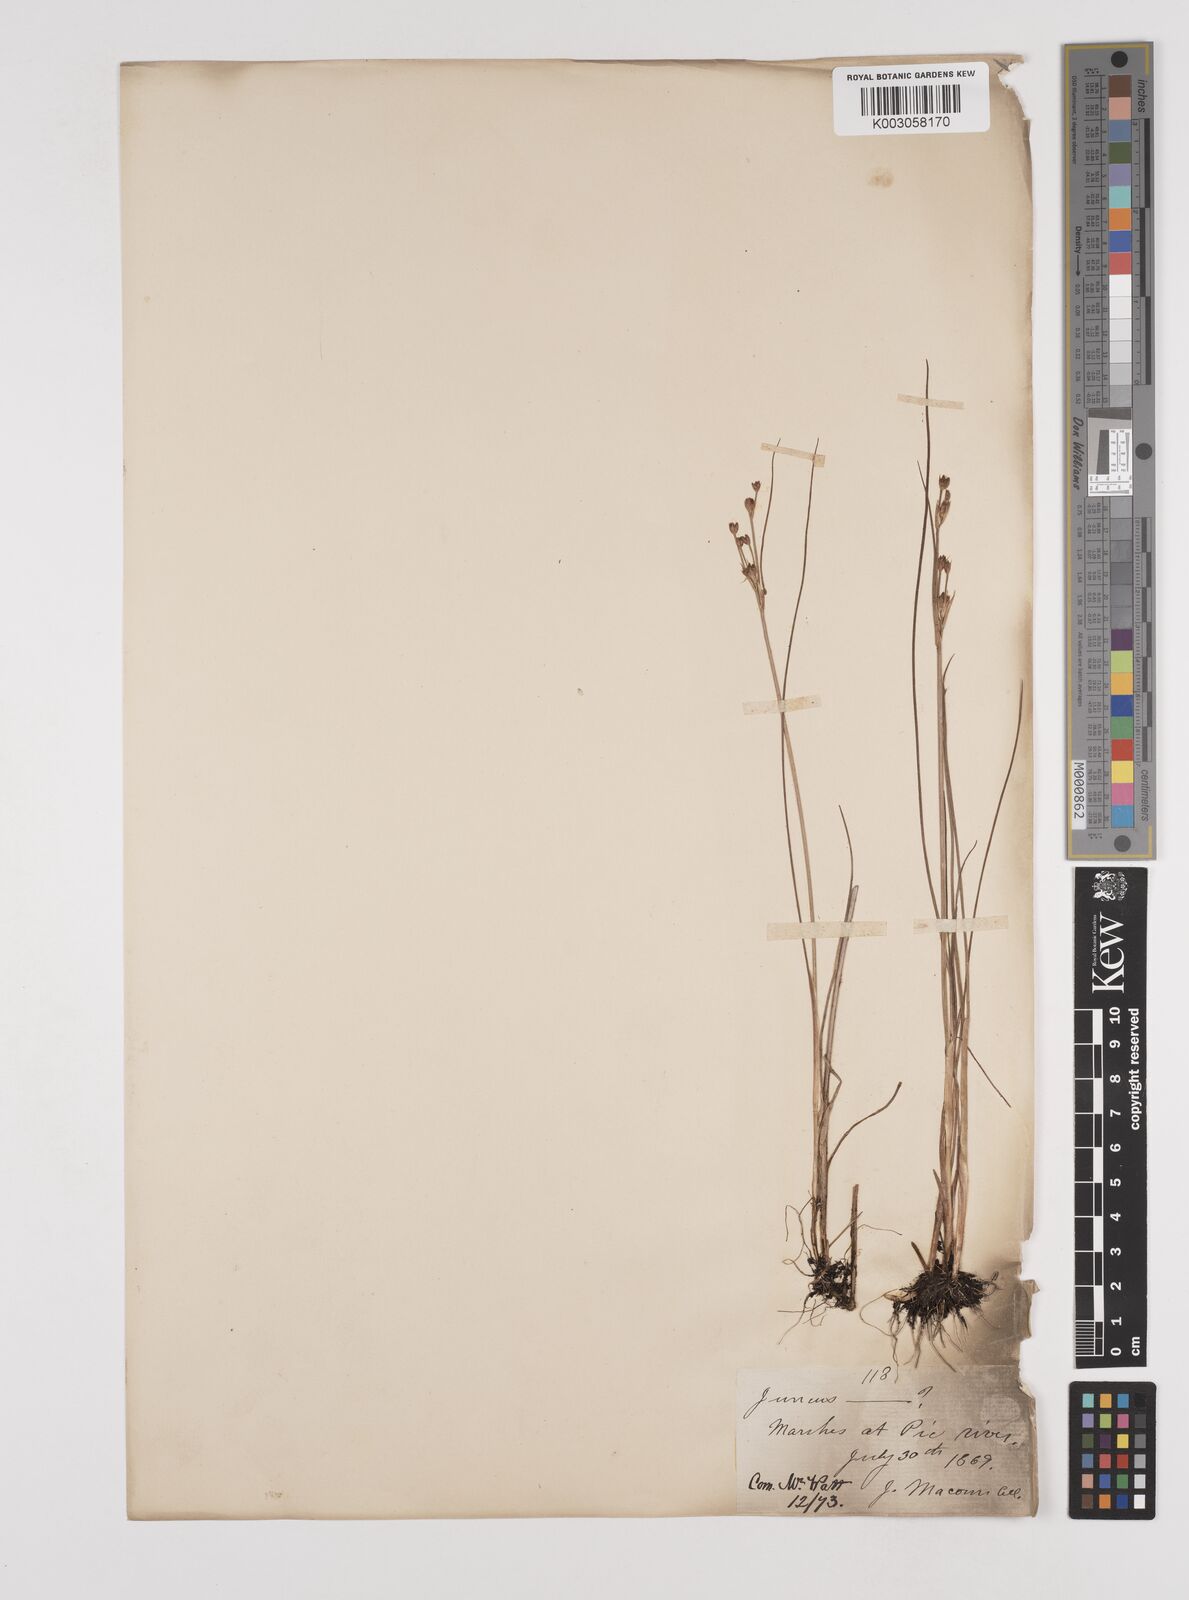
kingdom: Plantae
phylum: Tracheophyta
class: Liliopsida
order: Poales
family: Juncaceae
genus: Juncus
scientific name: Juncus
